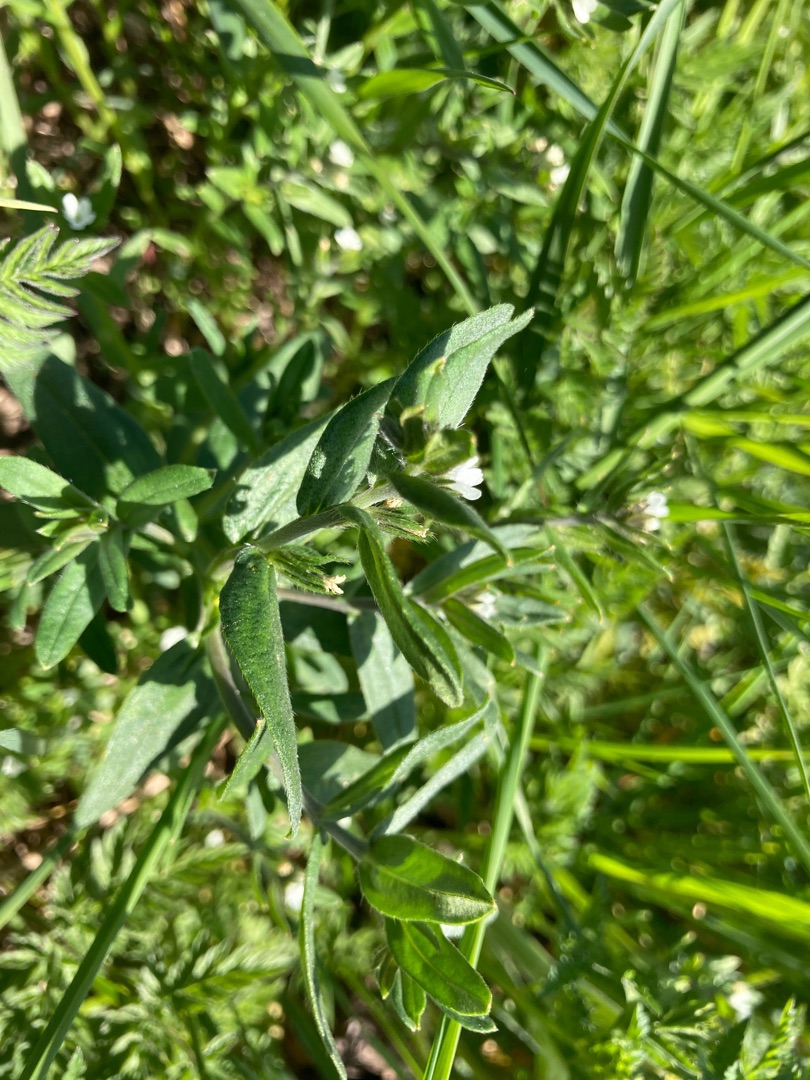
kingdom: Plantae
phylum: Tracheophyta
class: Magnoliopsida
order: Boraginales
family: Boraginaceae
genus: Buglossoides
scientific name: Buglossoides arvensis
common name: Rynket stenfrø
